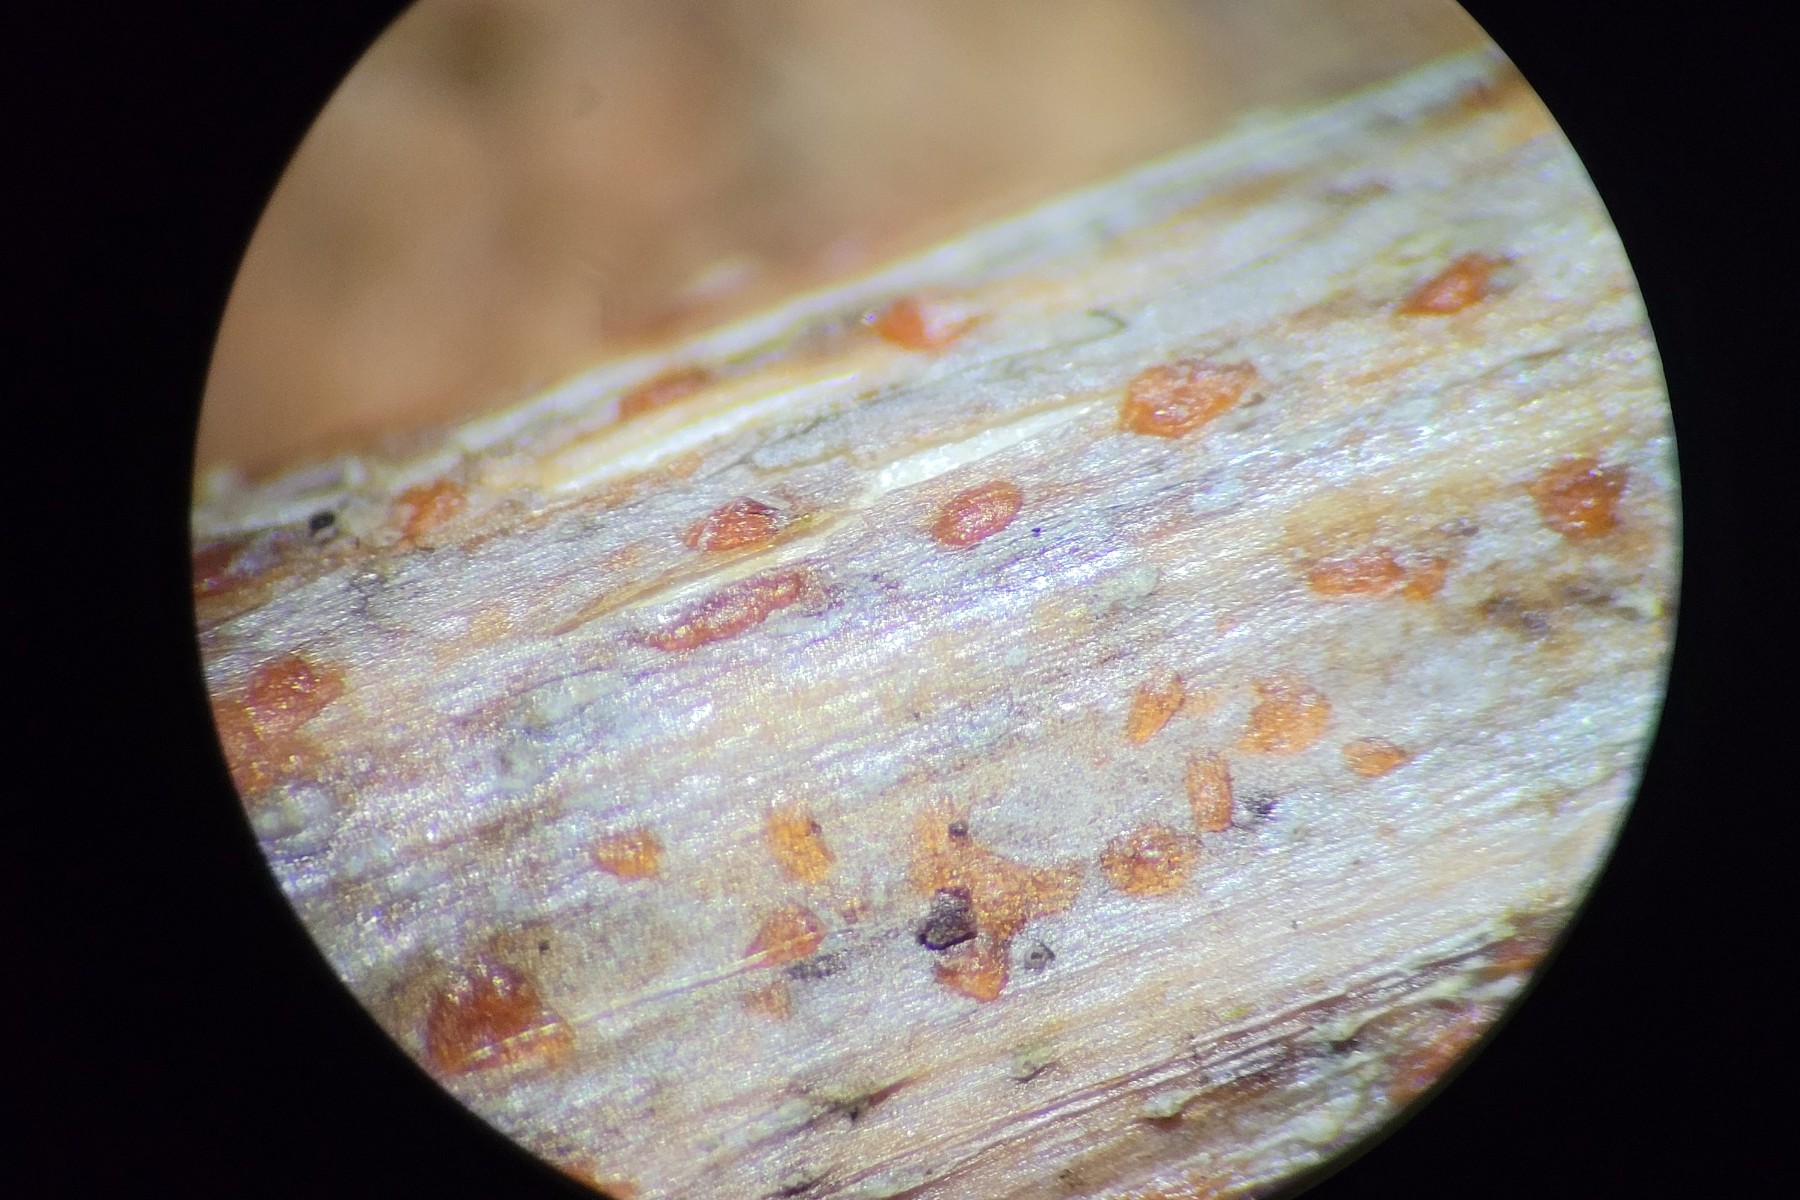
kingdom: Fungi
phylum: Ascomycota
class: Leotiomycetes
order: Helotiales
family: Calloriaceae
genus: Calloria
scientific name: Calloria urticae
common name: nælde-orangeskive
